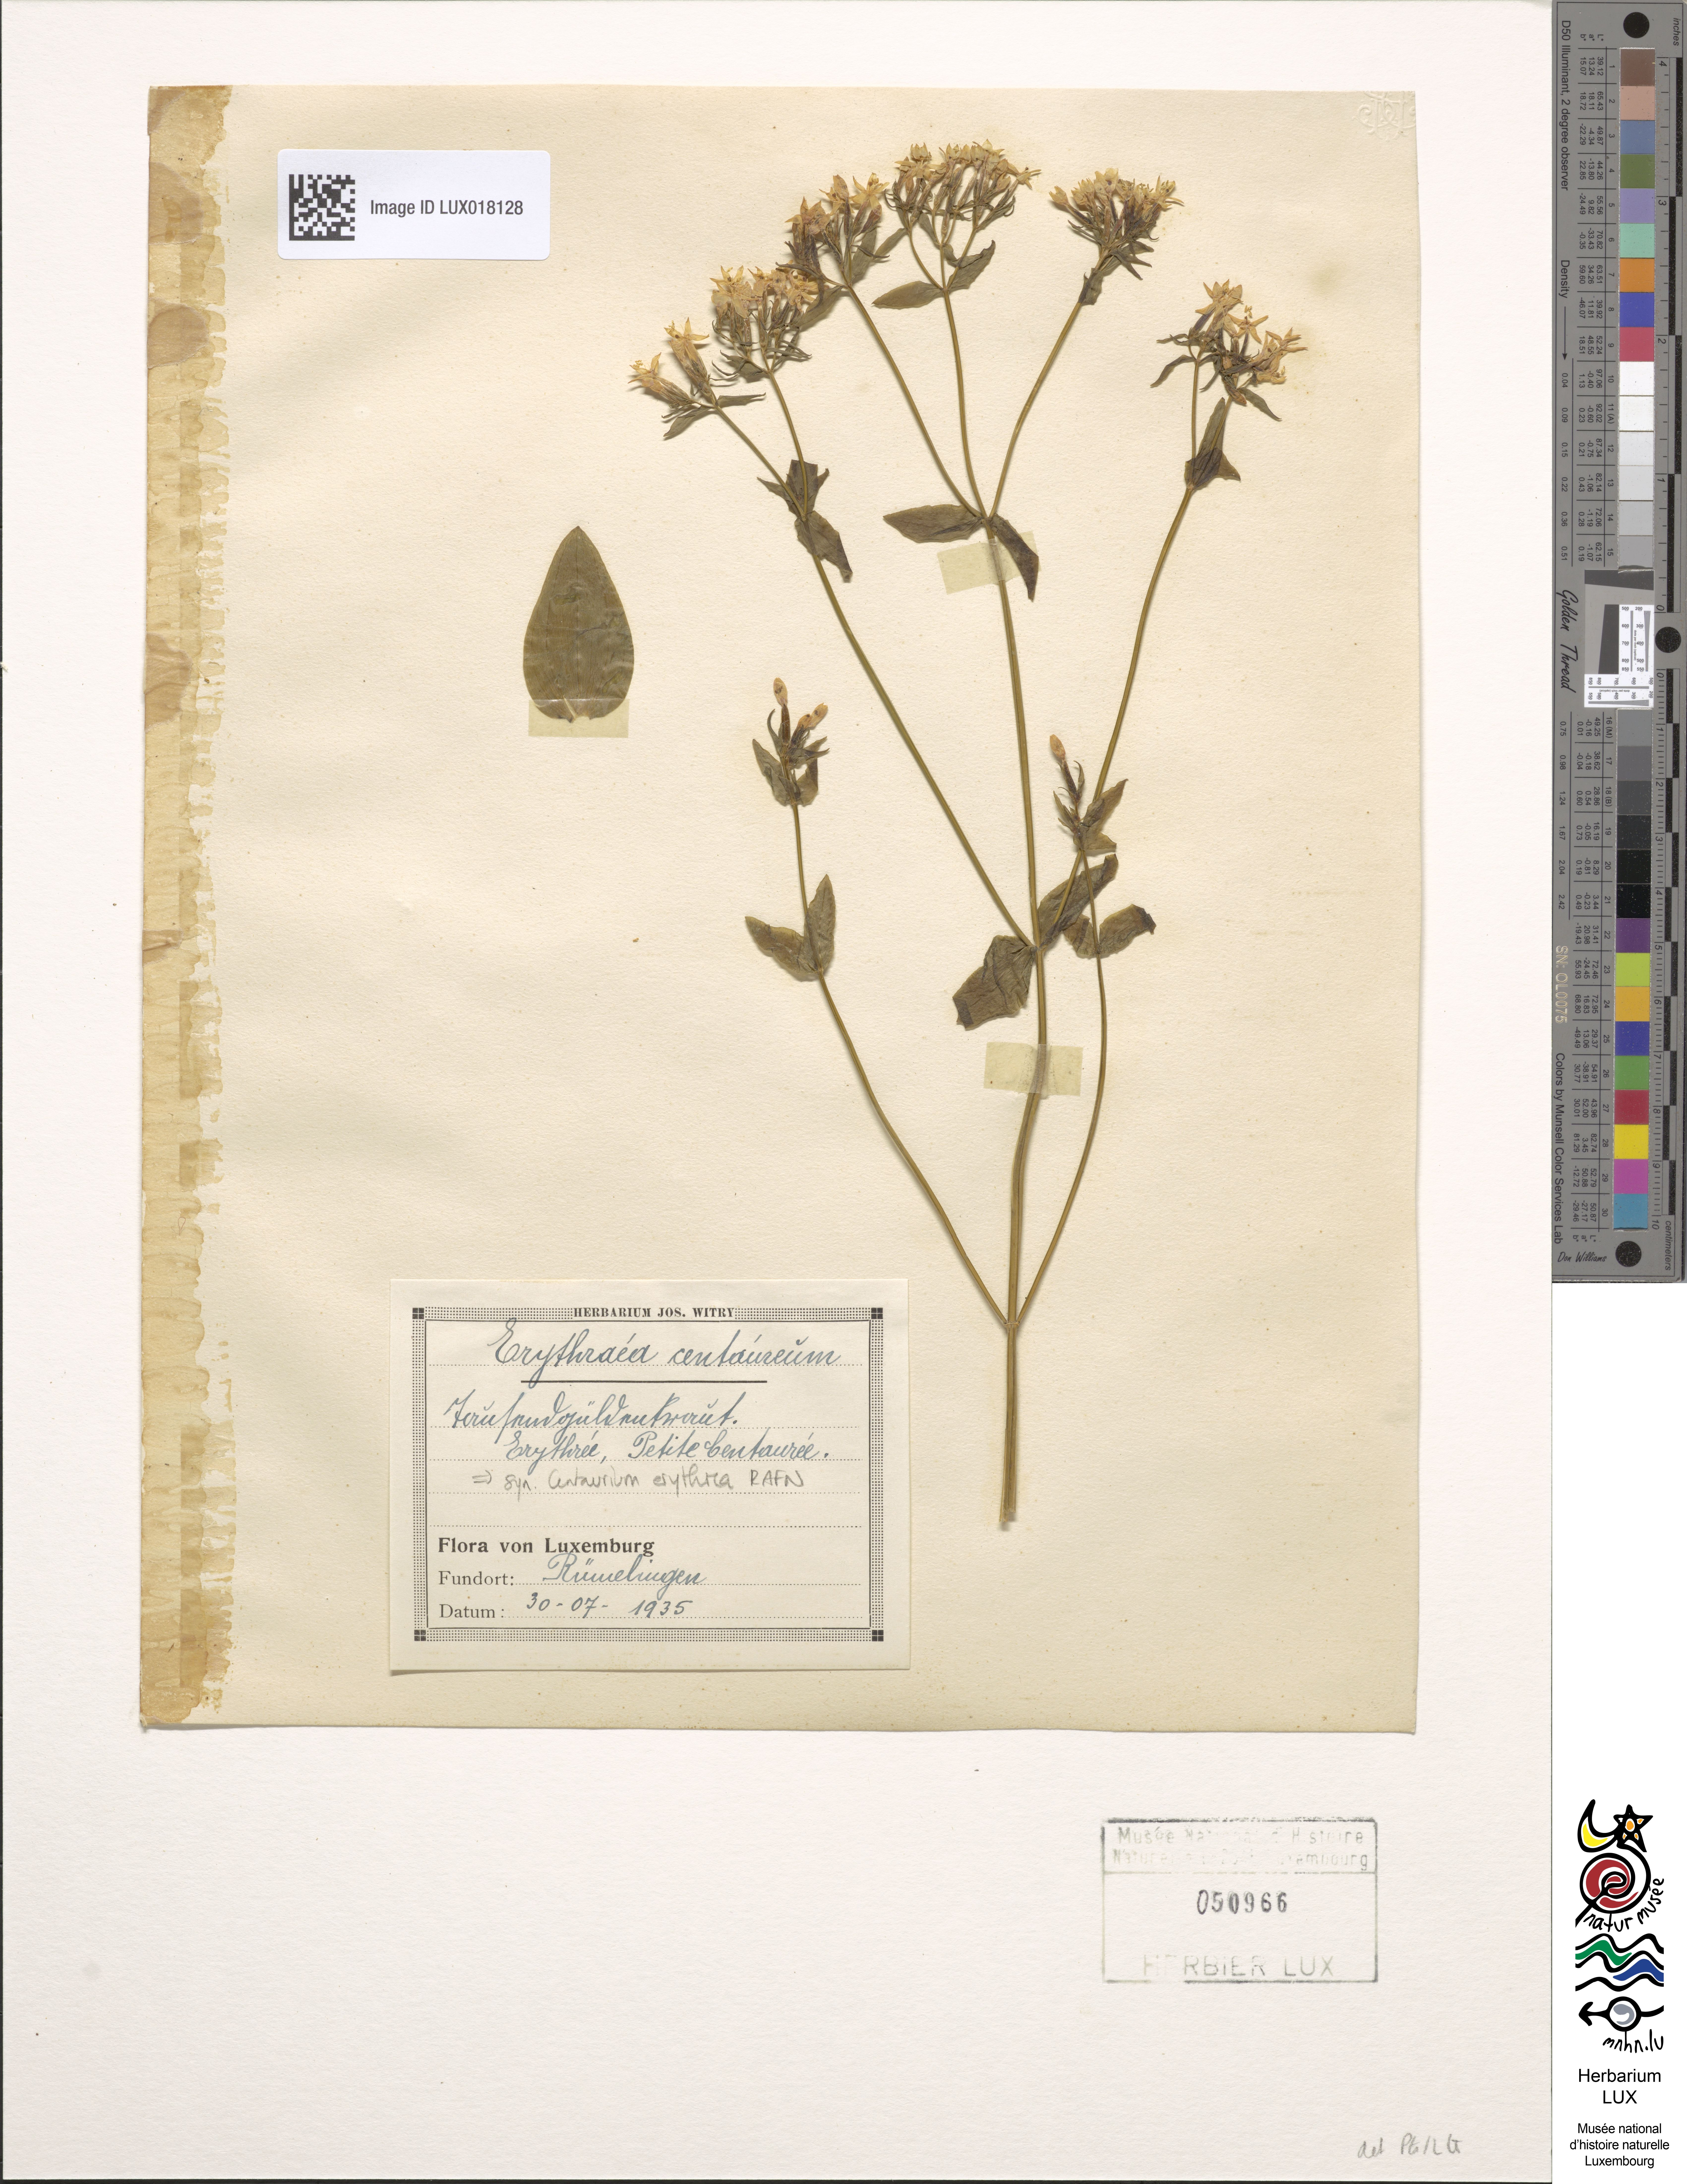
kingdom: Plantae
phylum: Tracheophyta
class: Magnoliopsida
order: Gentianales
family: Gentianaceae
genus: Centaurium
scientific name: Centaurium erythraea
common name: Common centaury
